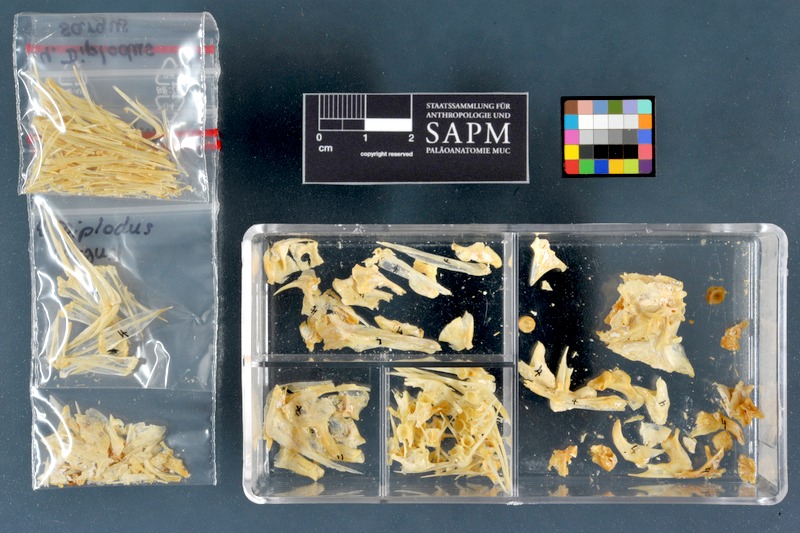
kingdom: Animalia
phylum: Chordata
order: Perciformes
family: Sparidae
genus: Diplodus
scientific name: Diplodus sargus
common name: White seabream
